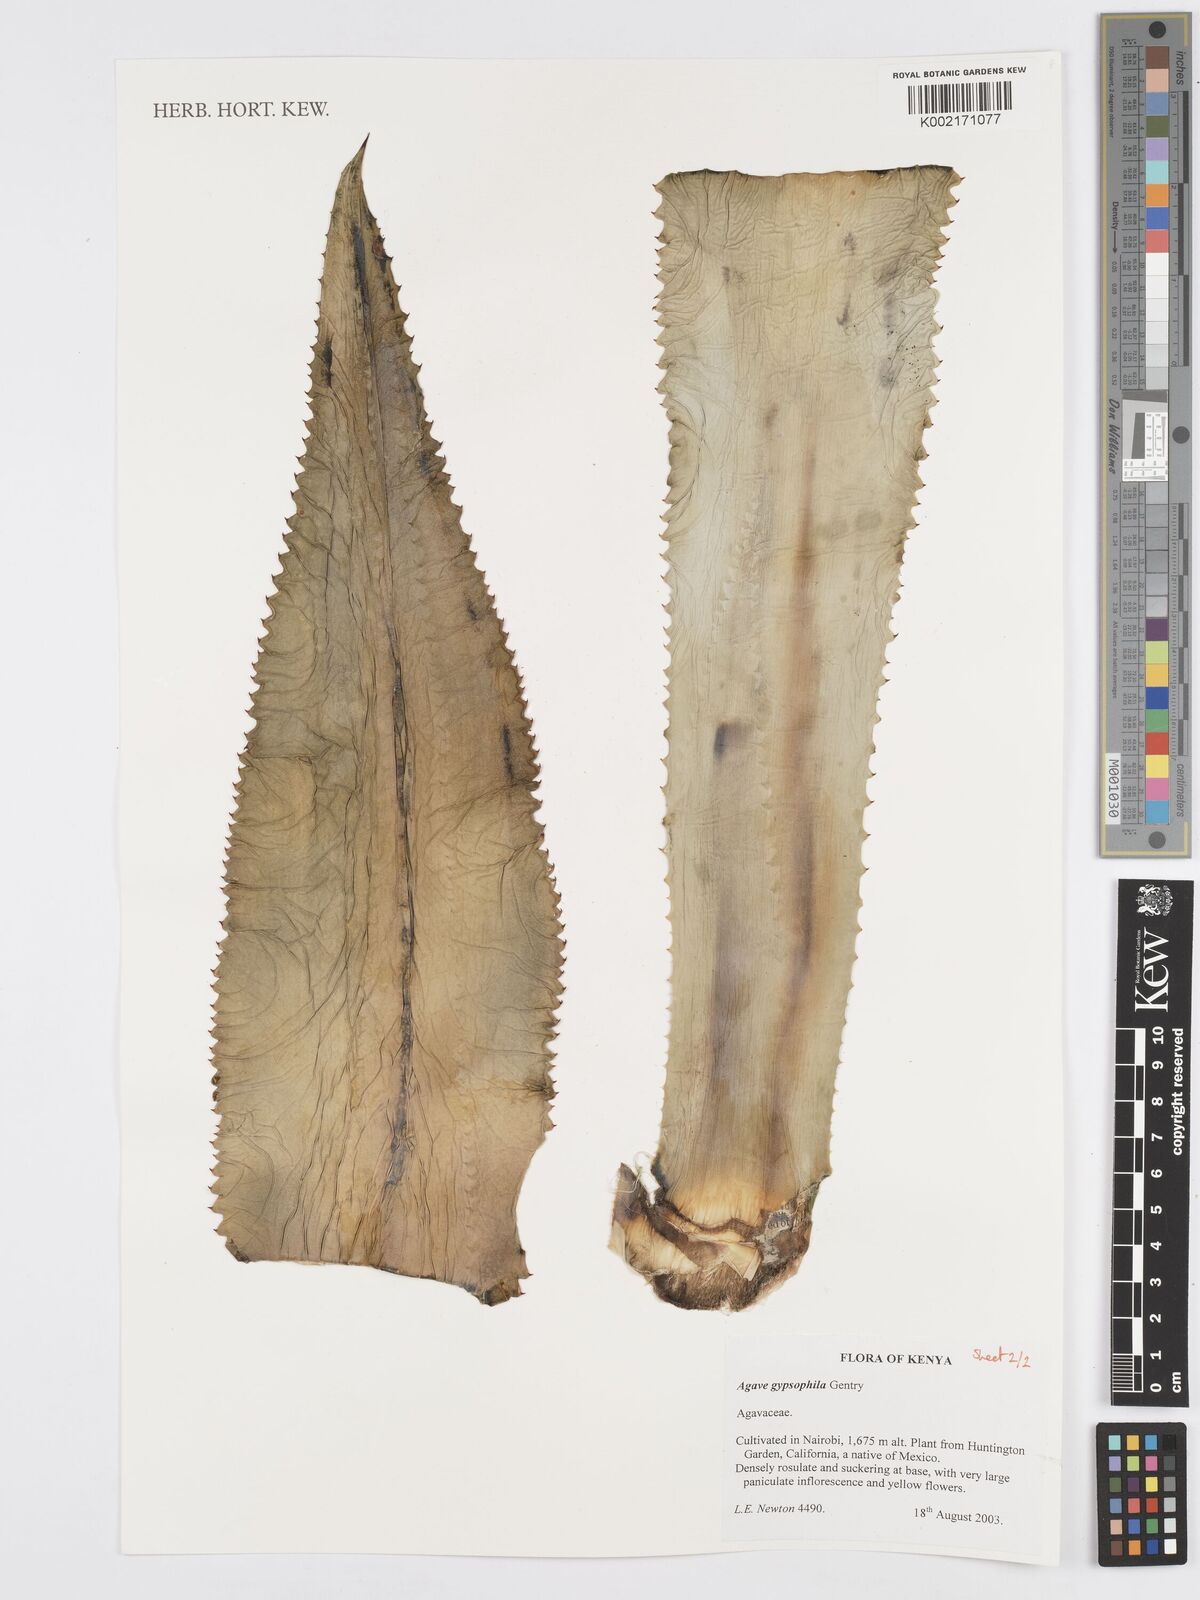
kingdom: Plantae
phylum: Tracheophyta
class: Liliopsida
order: Asparagales
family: Asparagaceae
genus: Agave
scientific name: Agave gypsophila
